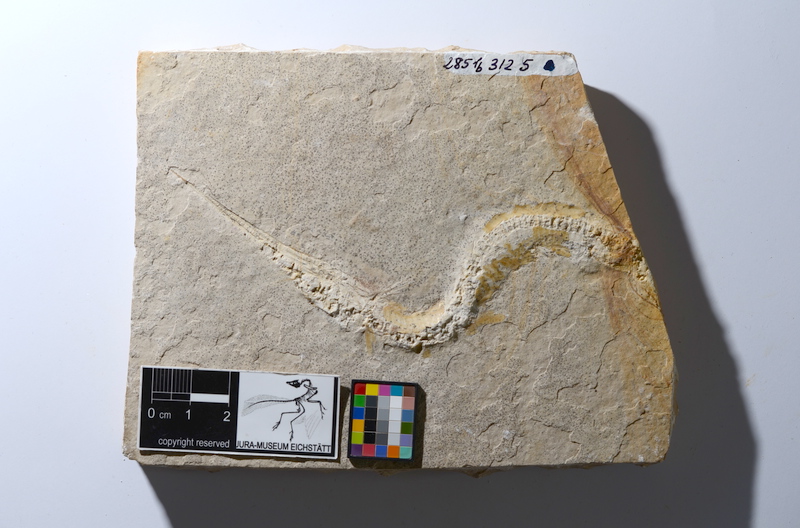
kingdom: Animalia
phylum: Chordata
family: Aspidorhynchidae
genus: Belonostomus
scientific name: Belonostomus tenuirostris
